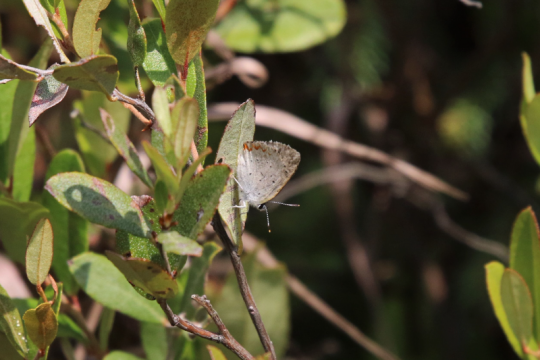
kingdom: Animalia
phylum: Arthropoda
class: Insecta
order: Lepidoptera
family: Sesiidae
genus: Sesia
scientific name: Sesia Lycaena epixanthe
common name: Bog Copper
